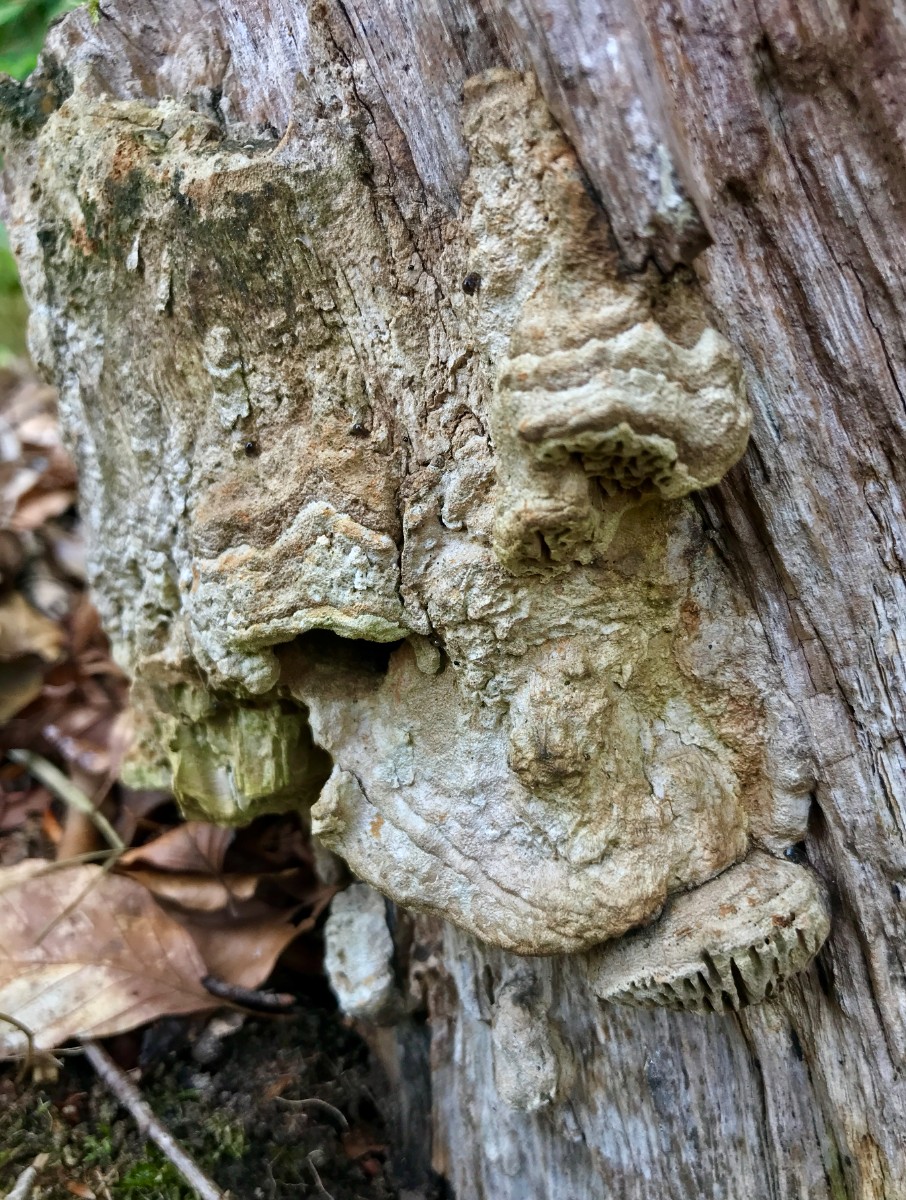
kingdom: Fungi
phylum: Basidiomycota
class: Agaricomycetes
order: Polyporales
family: Fomitopsidaceae
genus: Daedalea
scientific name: Daedalea quercina
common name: ege-labyrintsvamp
